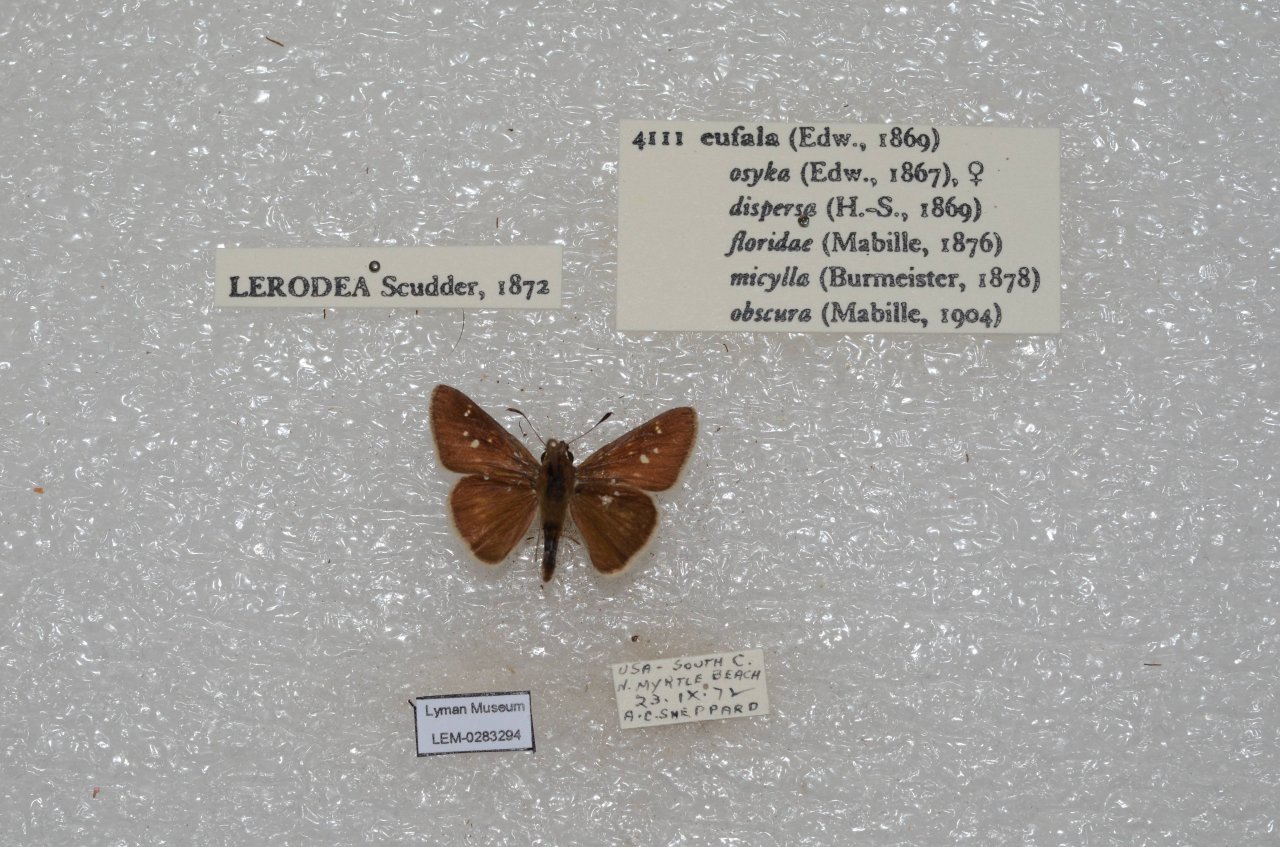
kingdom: Animalia
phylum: Arthropoda
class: Insecta
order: Lepidoptera
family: Hesperiidae
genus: Lerodea
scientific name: Lerodea eufala
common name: Eufala Skipper
